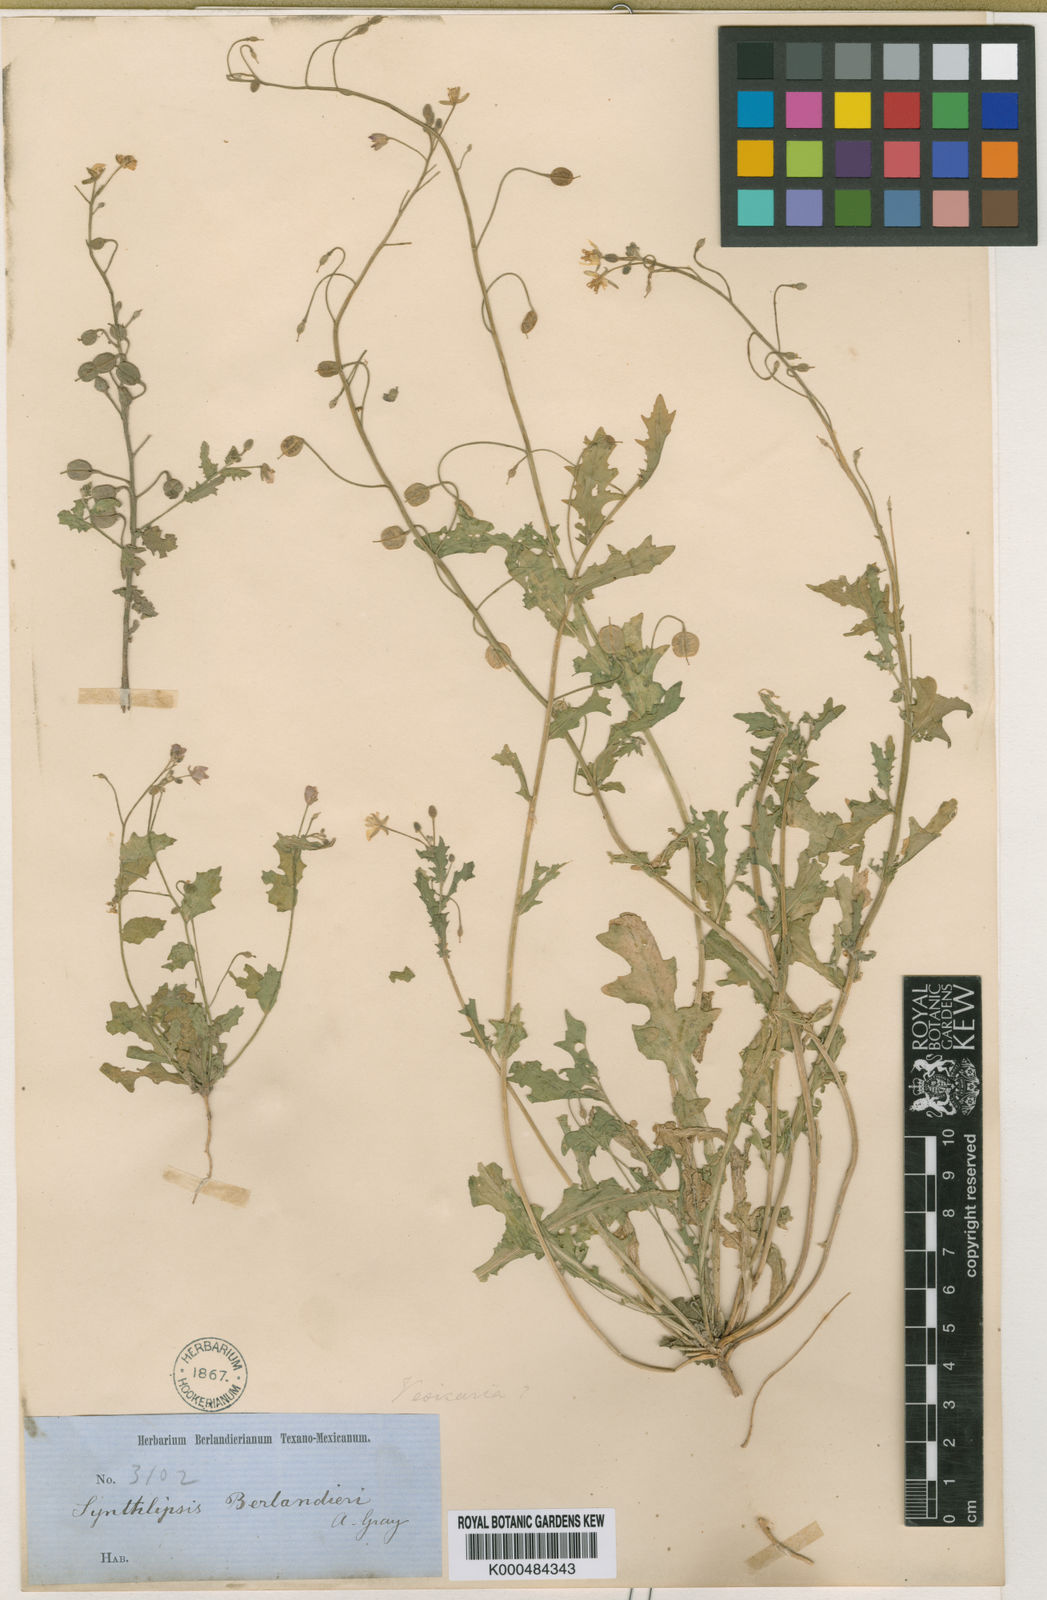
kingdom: Plantae
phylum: Tracheophyta
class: Magnoliopsida
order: Brassicales
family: Brassicaceae
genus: Physaria
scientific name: Physaria berlandieri
